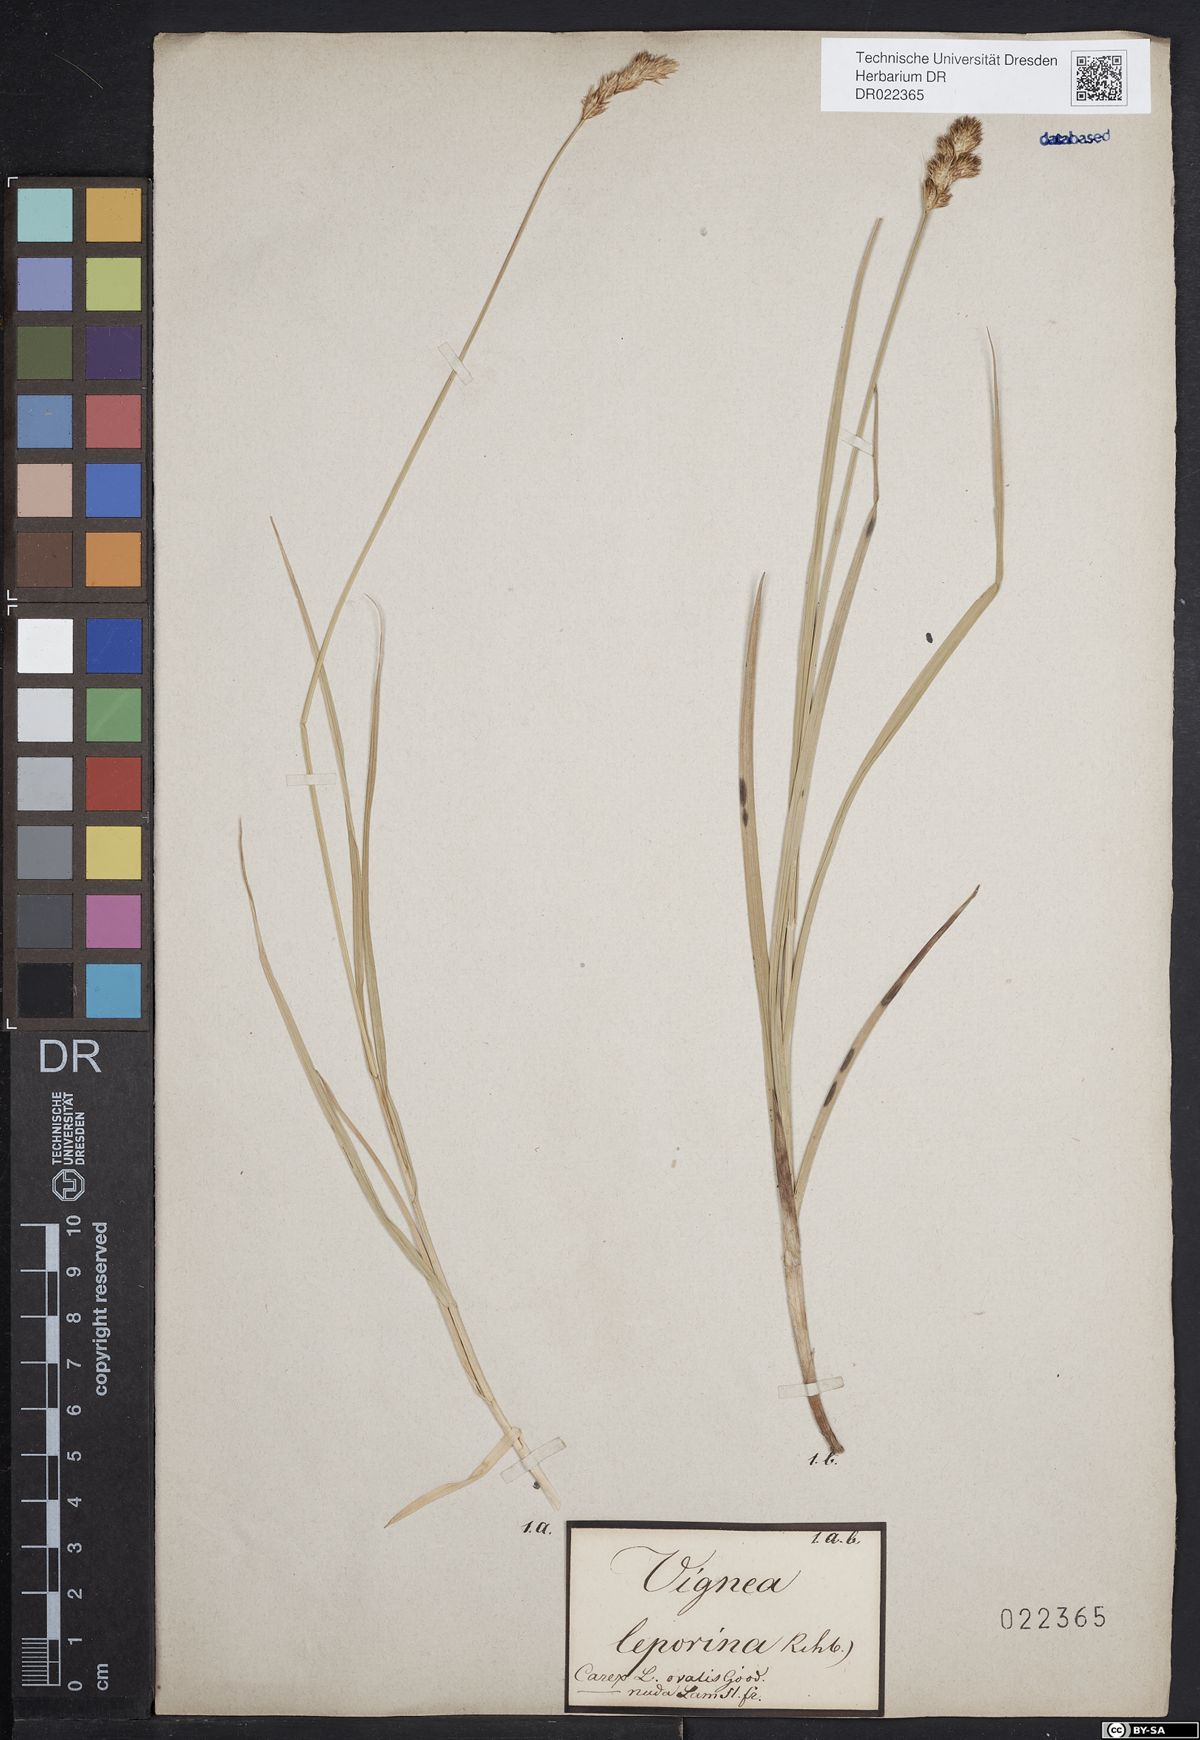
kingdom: Plantae
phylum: Tracheophyta
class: Liliopsida
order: Poales
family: Cyperaceae
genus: Carex
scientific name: Carex leporina
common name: Oval sedge
